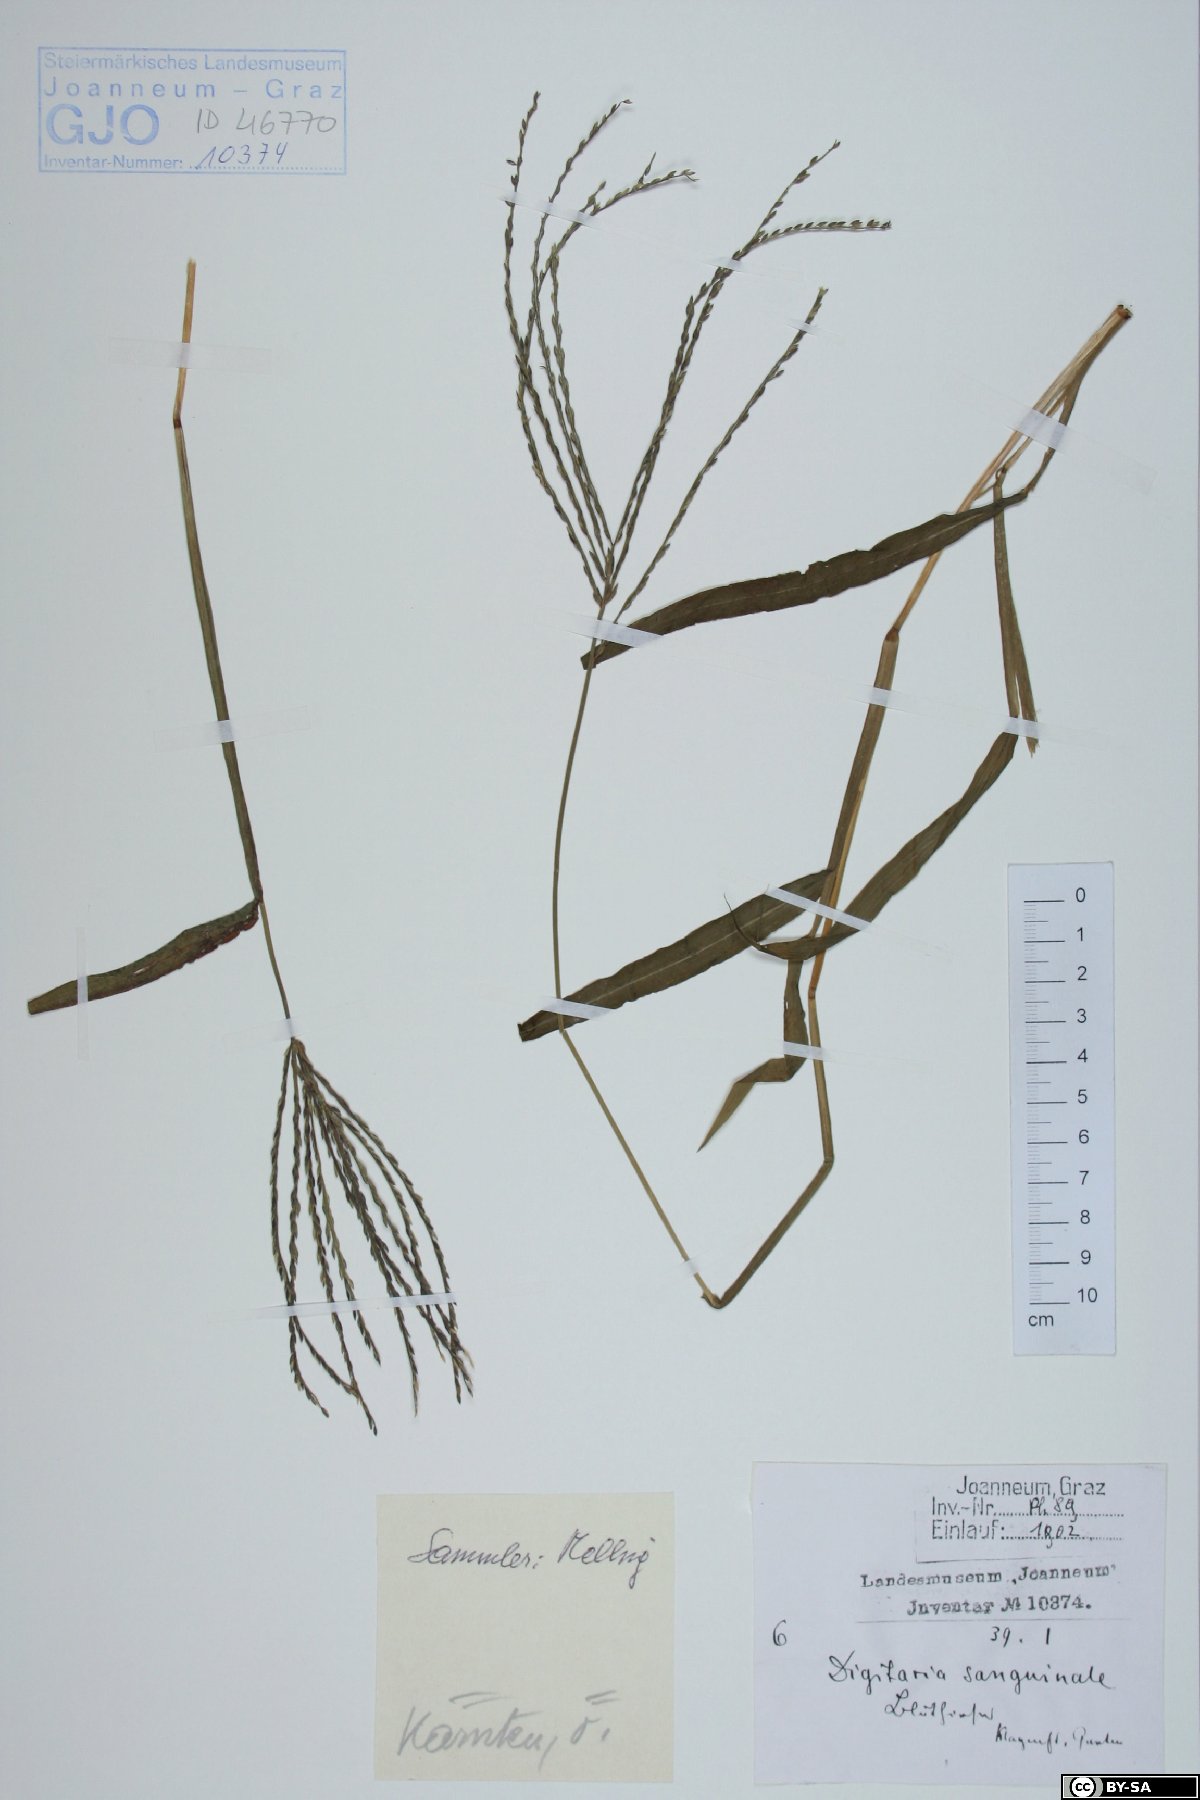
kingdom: Plantae
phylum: Tracheophyta
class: Liliopsida
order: Poales
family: Poaceae
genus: Digitaria
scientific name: Digitaria sanguinalis
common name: Hairy crabgrass
